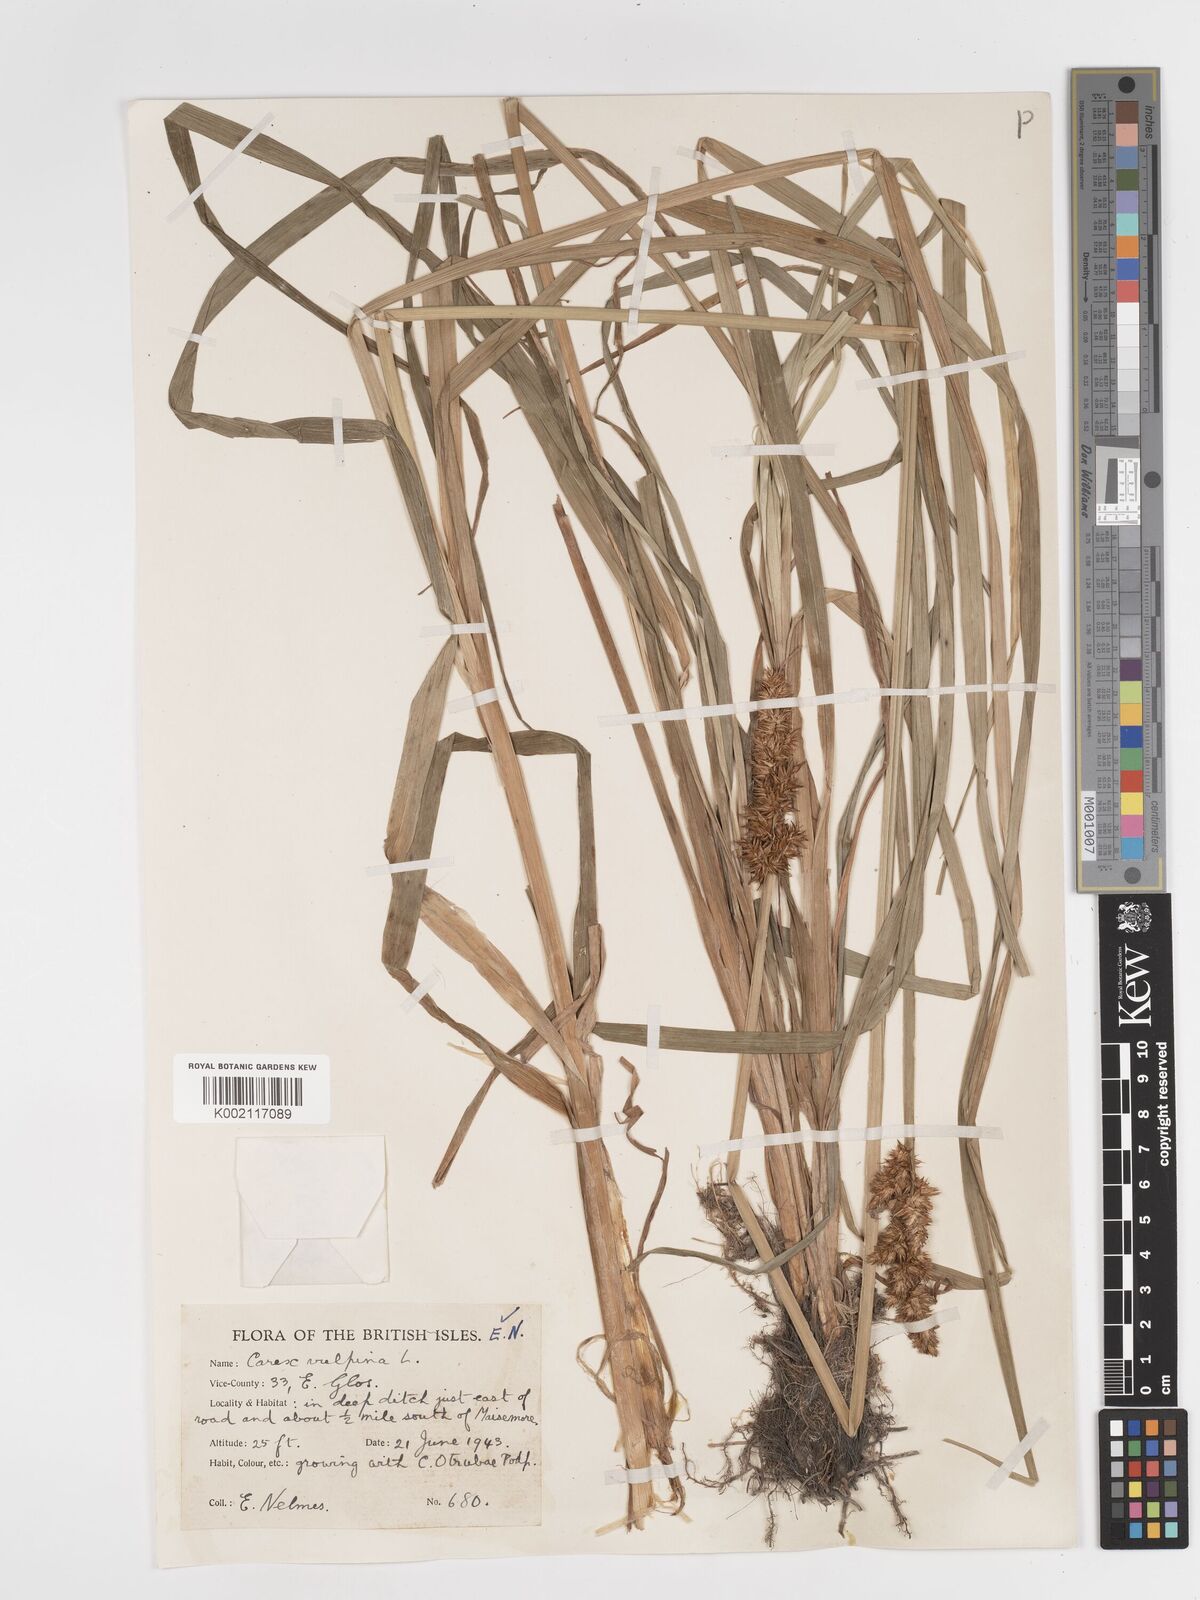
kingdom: Plantae
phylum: Tracheophyta
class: Liliopsida
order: Poales
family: Cyperaceae
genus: Carex
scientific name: Carex vulpina
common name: True fox-sedge
